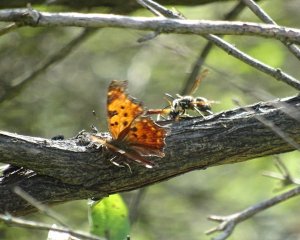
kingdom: Animalia
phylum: Arthropoda
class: Insecta
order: Lepidoptera
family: Nymphalidae
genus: Polygonia
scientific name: Polygonia
